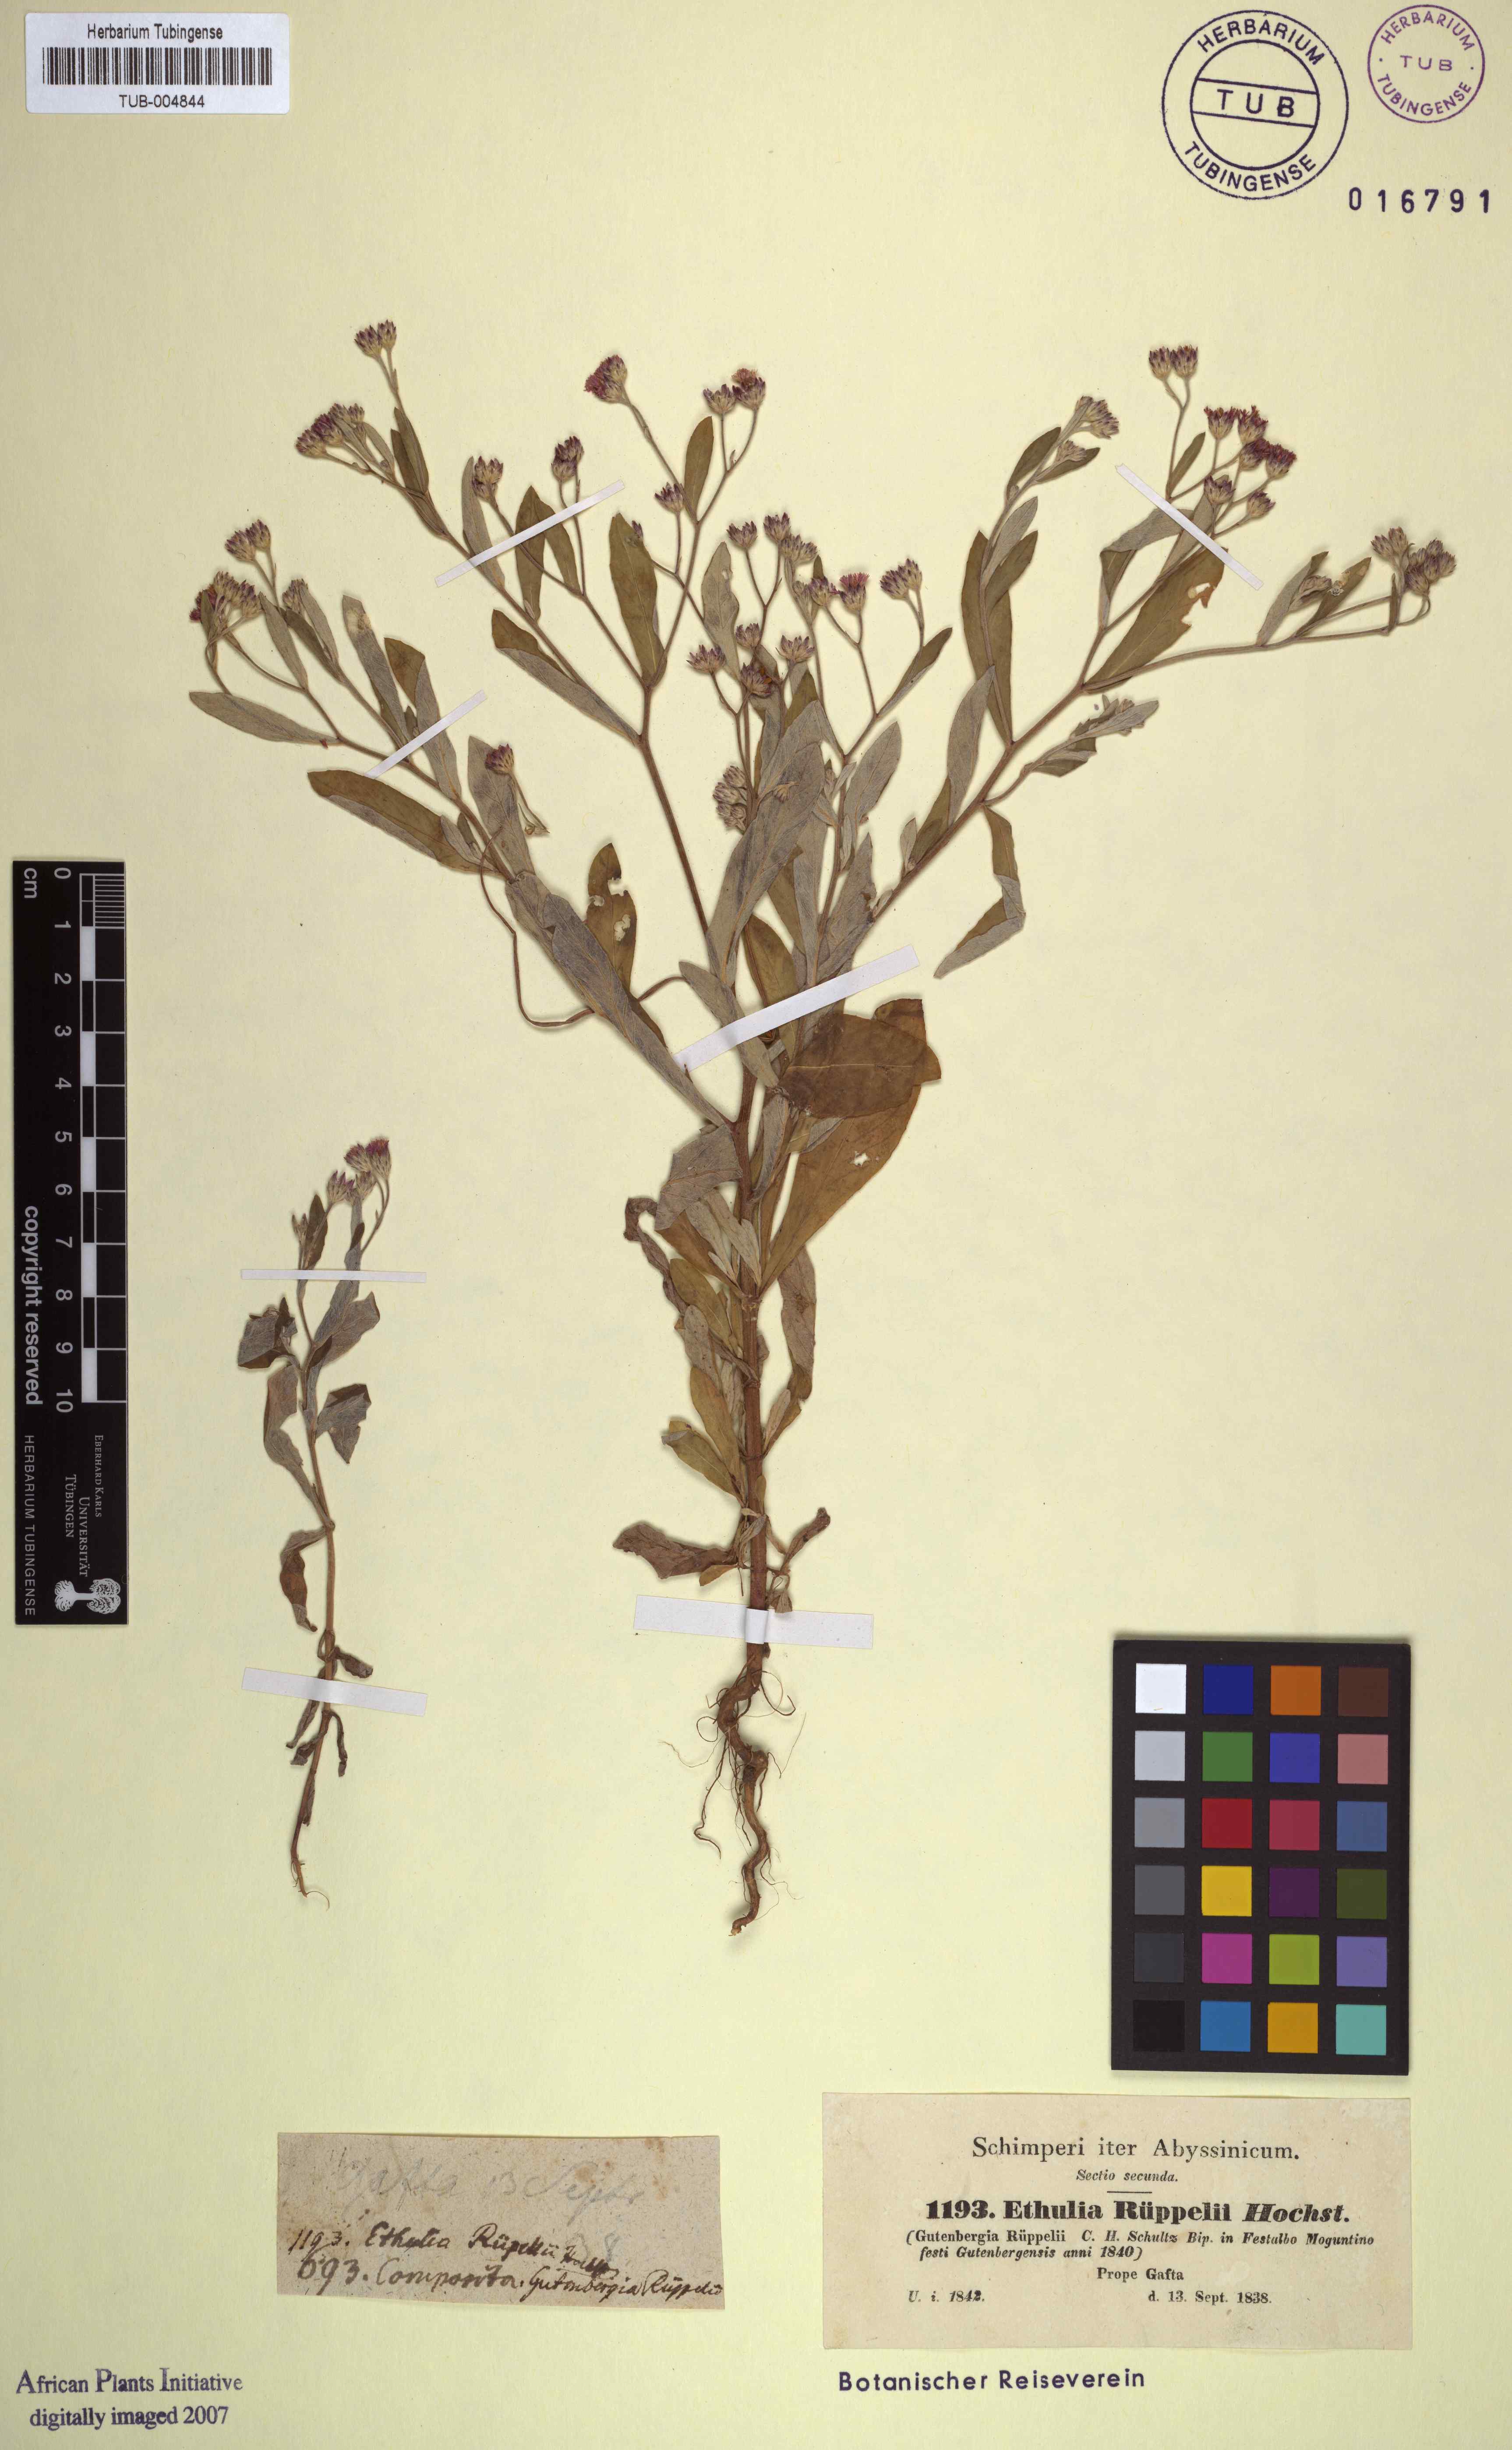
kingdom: Plantae
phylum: Tracheophyta
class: Magnoliopsida
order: Asterales
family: Asteraceae
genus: Gutenbergia
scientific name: Gutenbergia rueppellii
